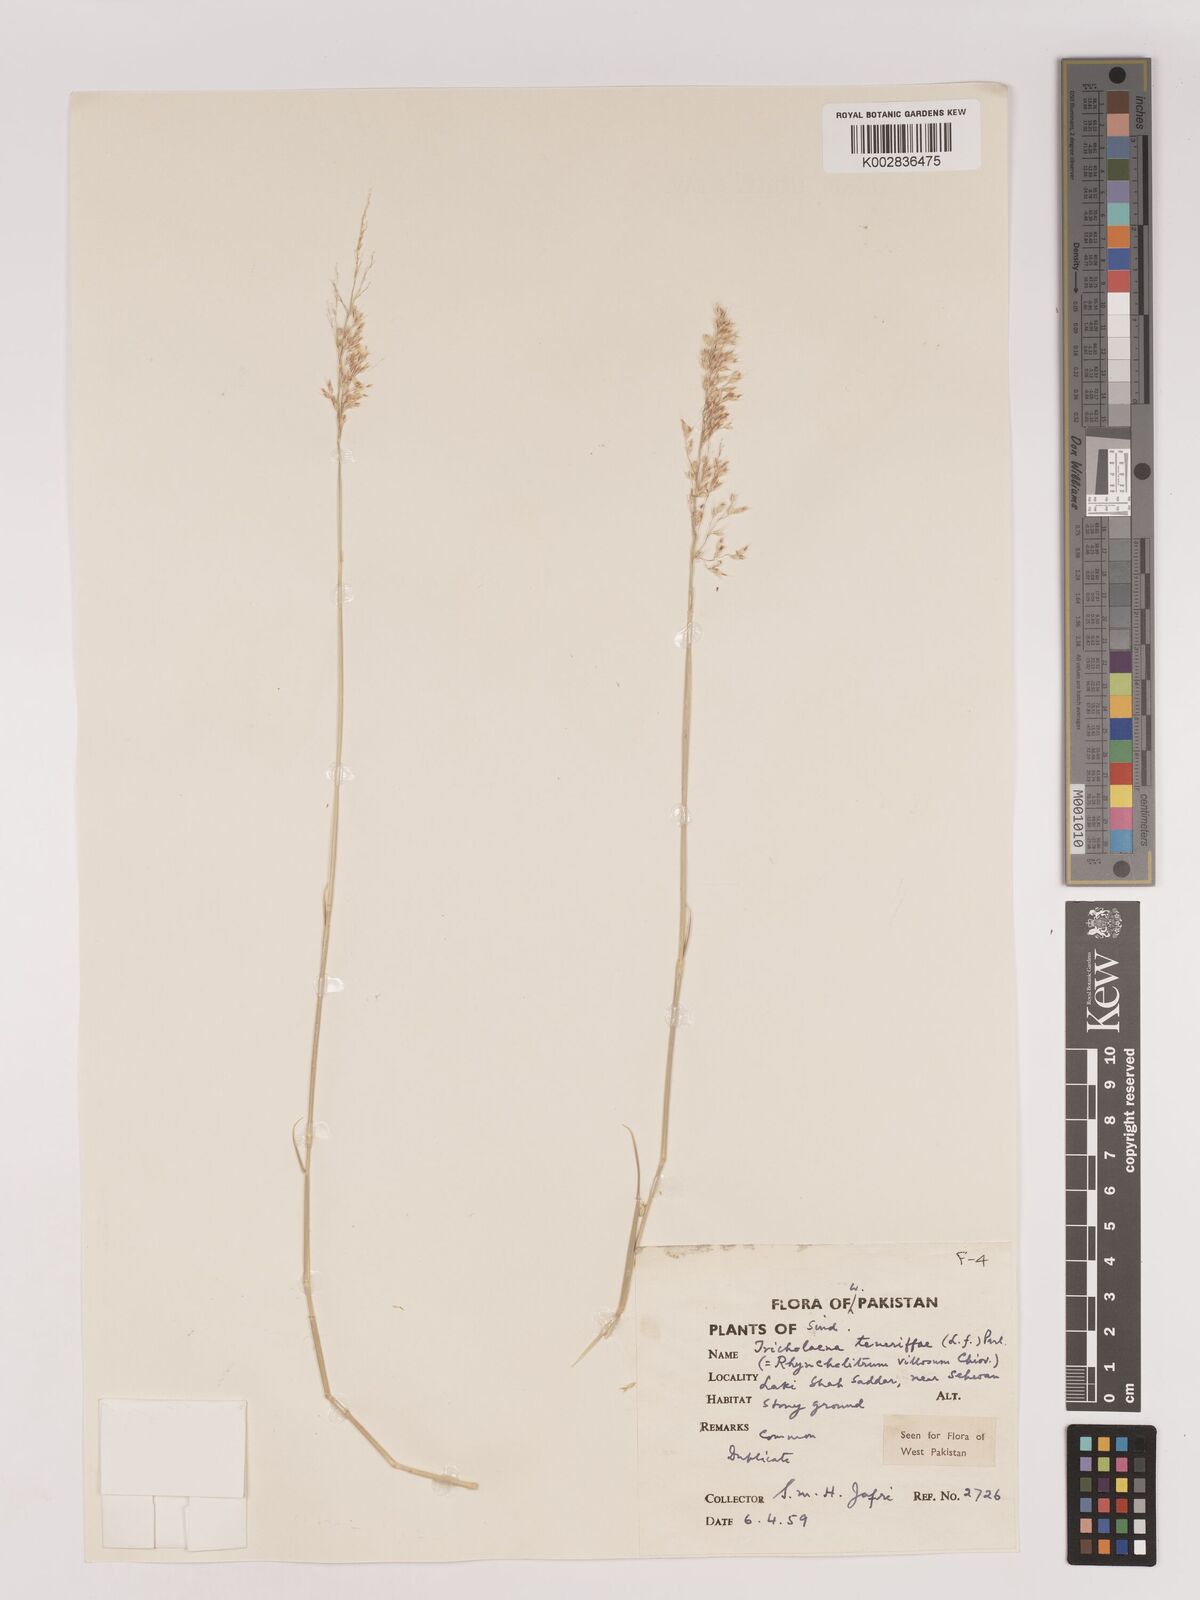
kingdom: Plantae
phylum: Tracheophyta
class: Liliopsida
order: Poales
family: Poaceae
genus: Tricholaena
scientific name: Tricholaena teneriffae
